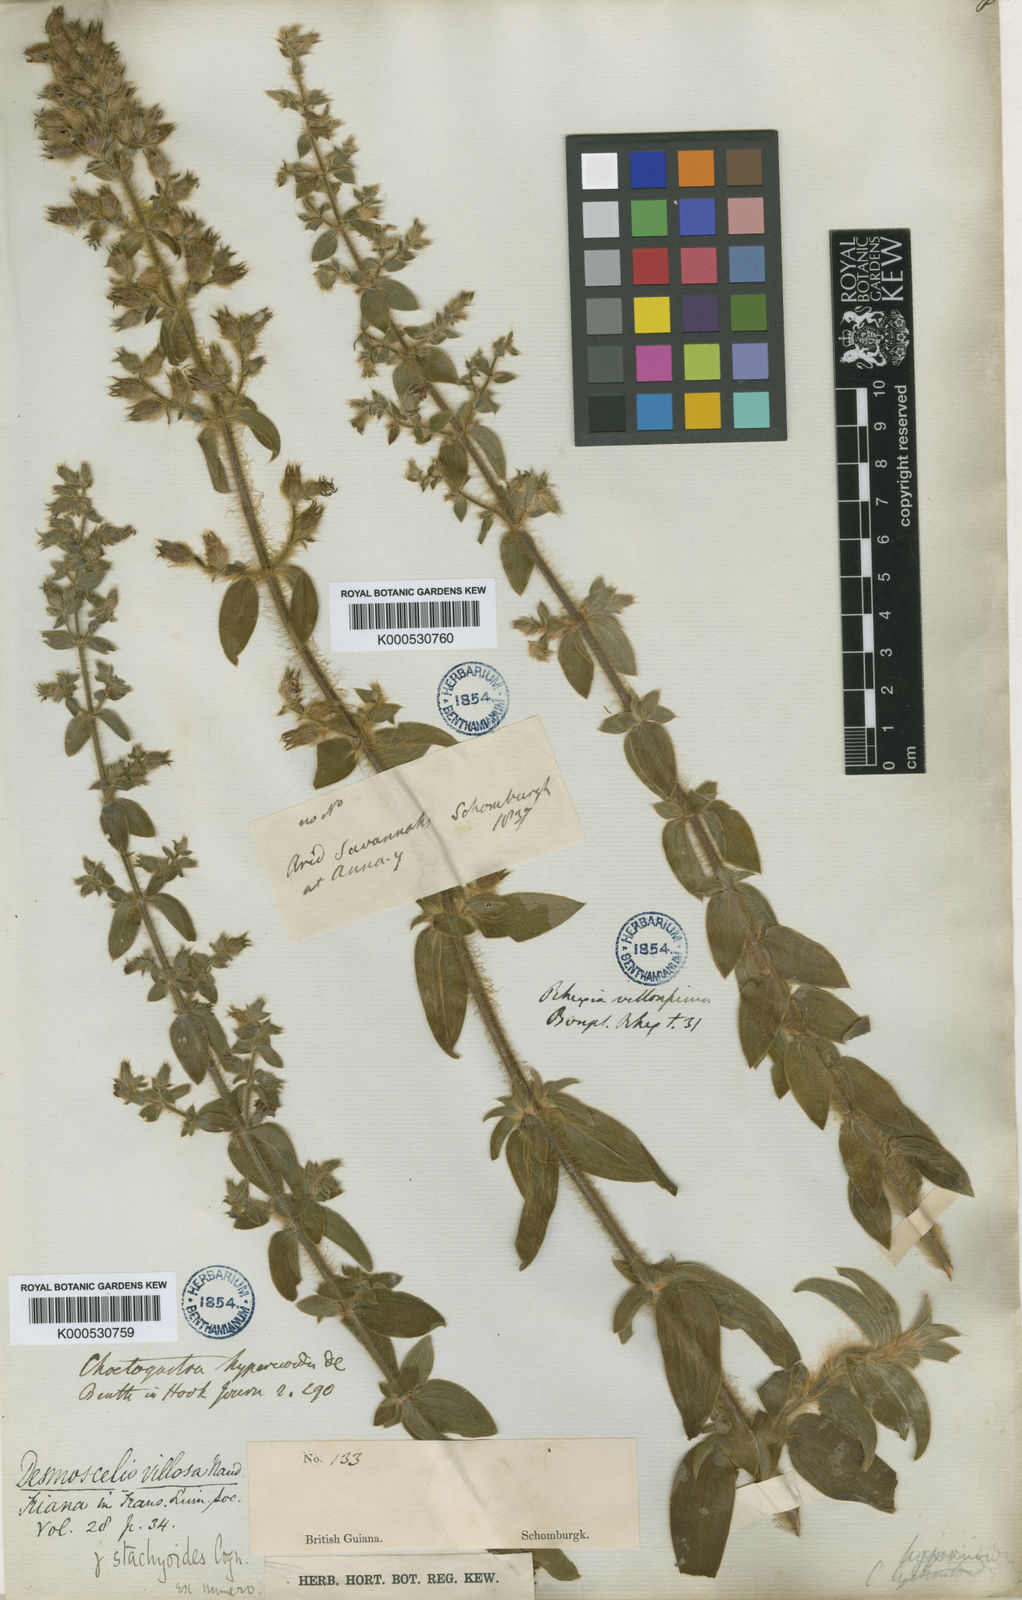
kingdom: Plantae
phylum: Tracheophyta
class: Magnoliopsida
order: Myrtales
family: Melastomataceae
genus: Desmoscelis
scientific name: Desmoscelis villosa
